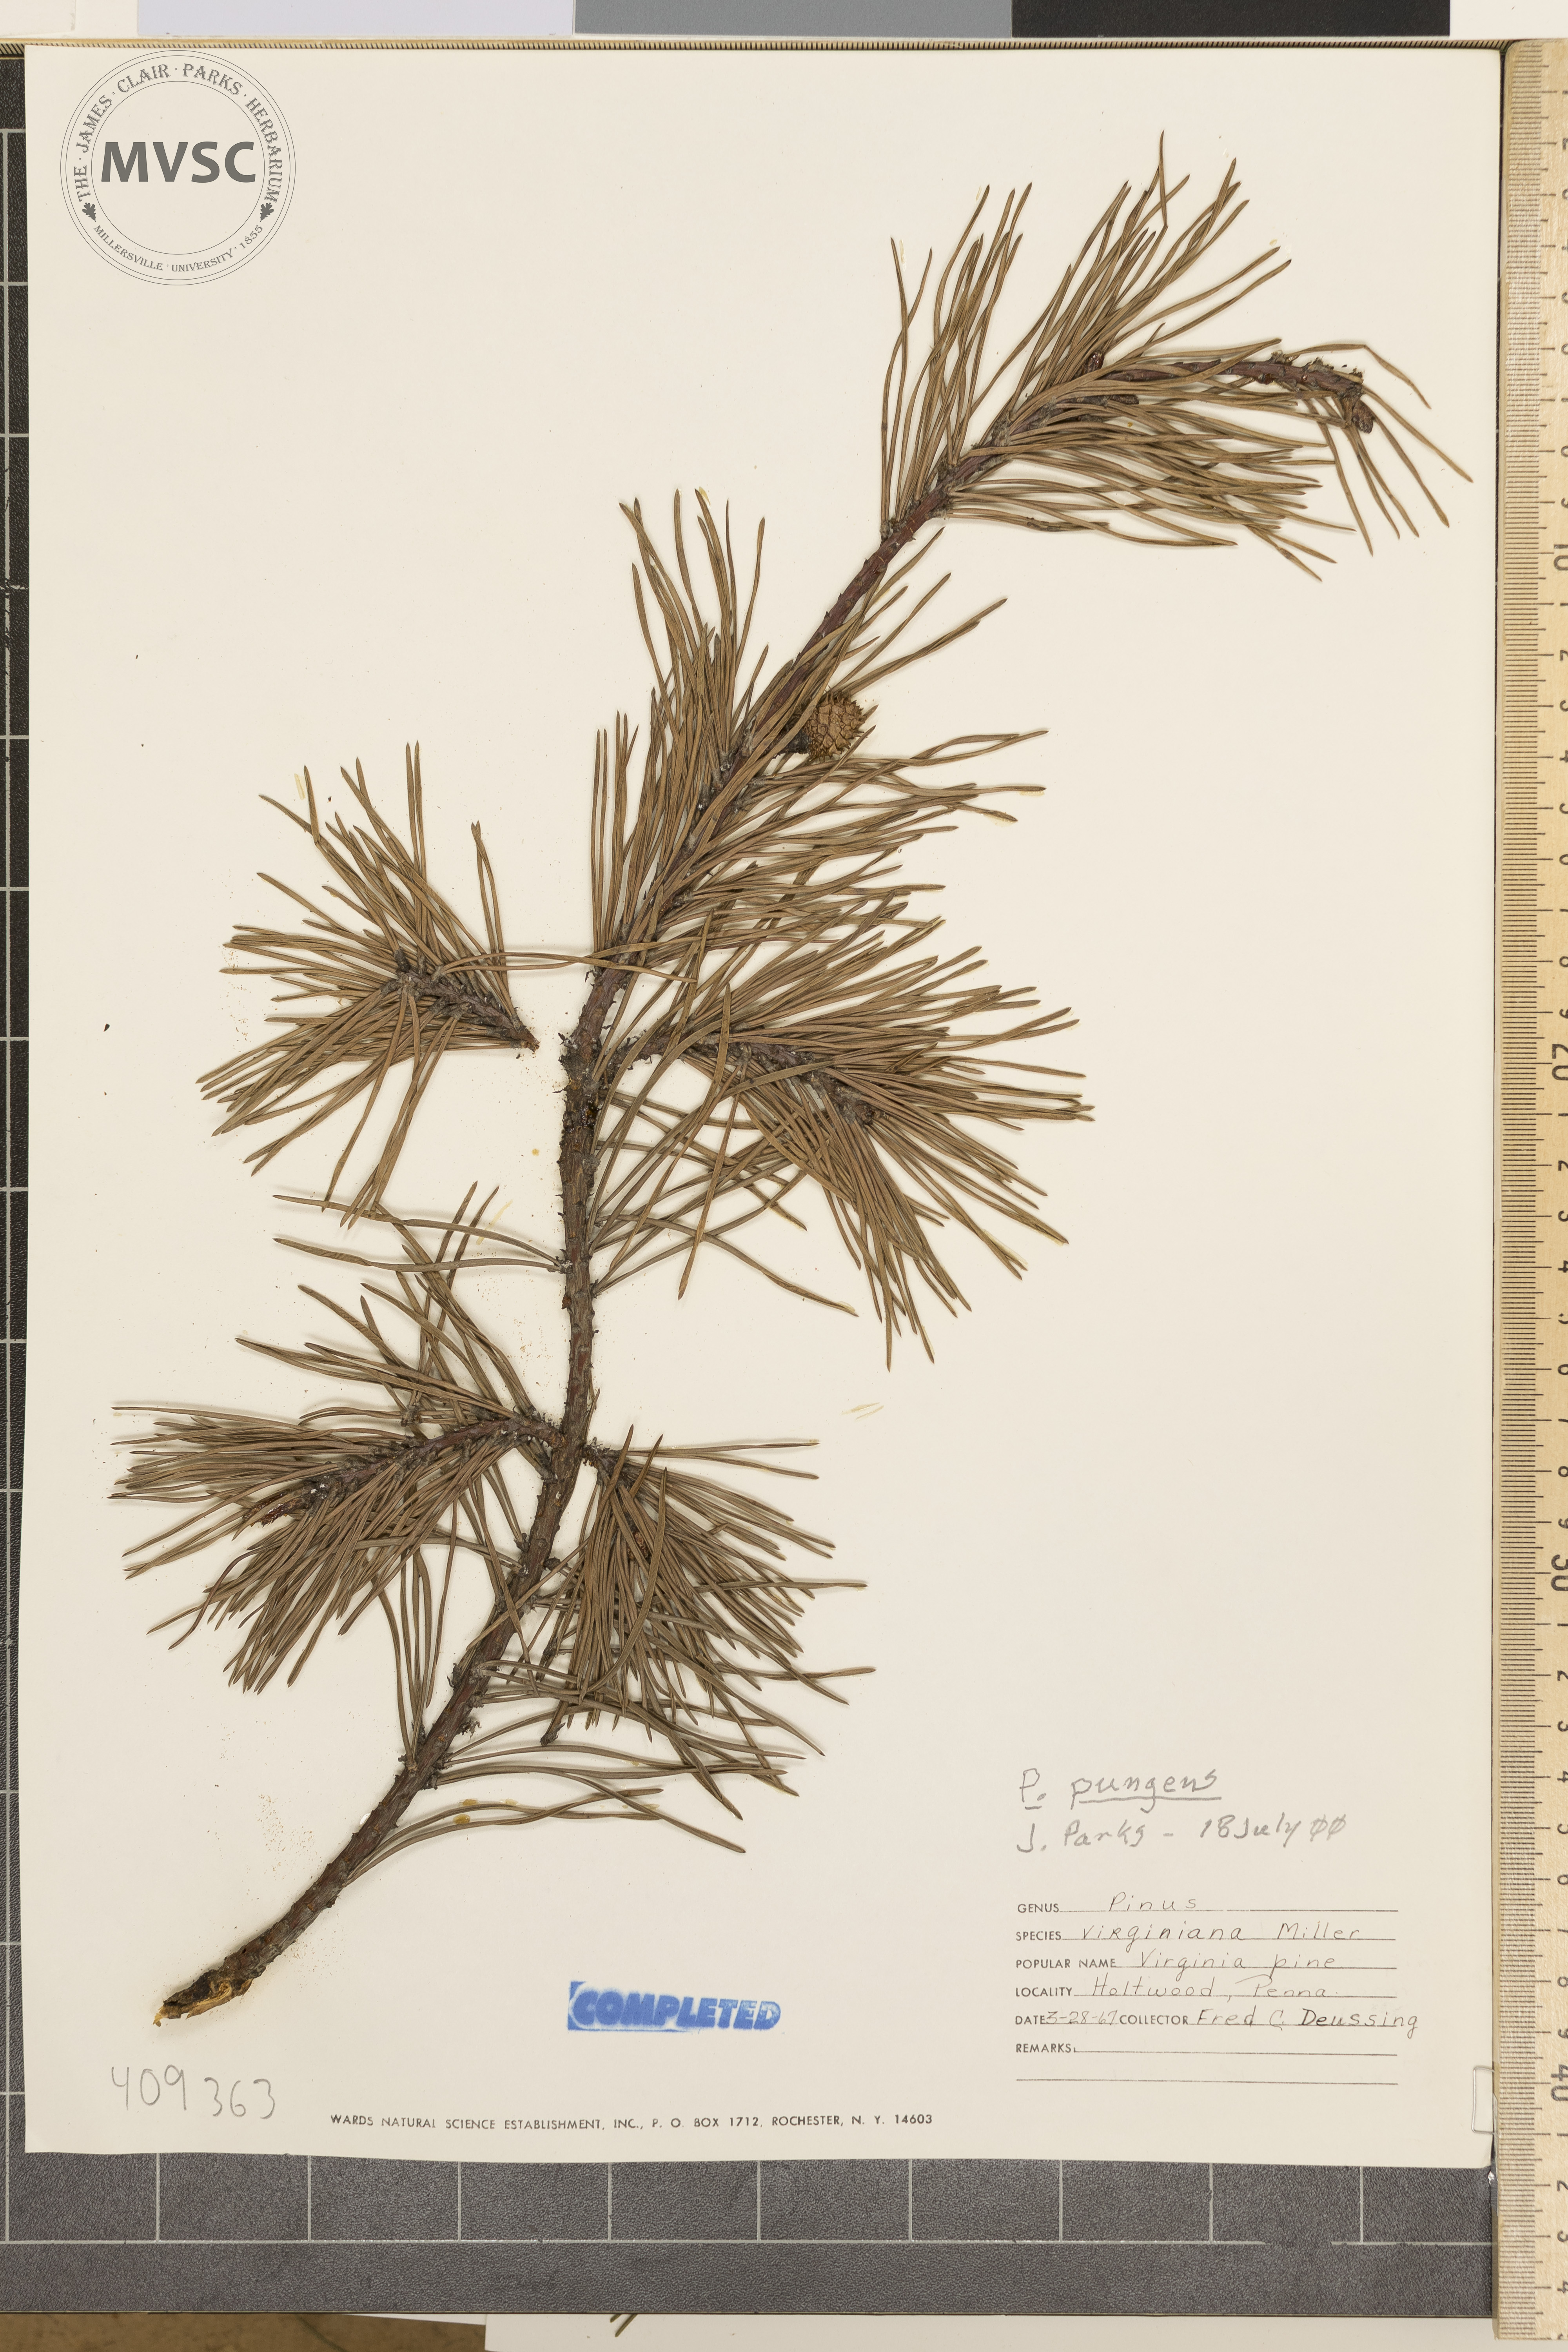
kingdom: Plantae
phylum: Tracheophyta
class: Pinopsida
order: Pinales
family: Pinaceae
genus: Pinus
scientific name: Pinus pungens
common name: Hickory pine
